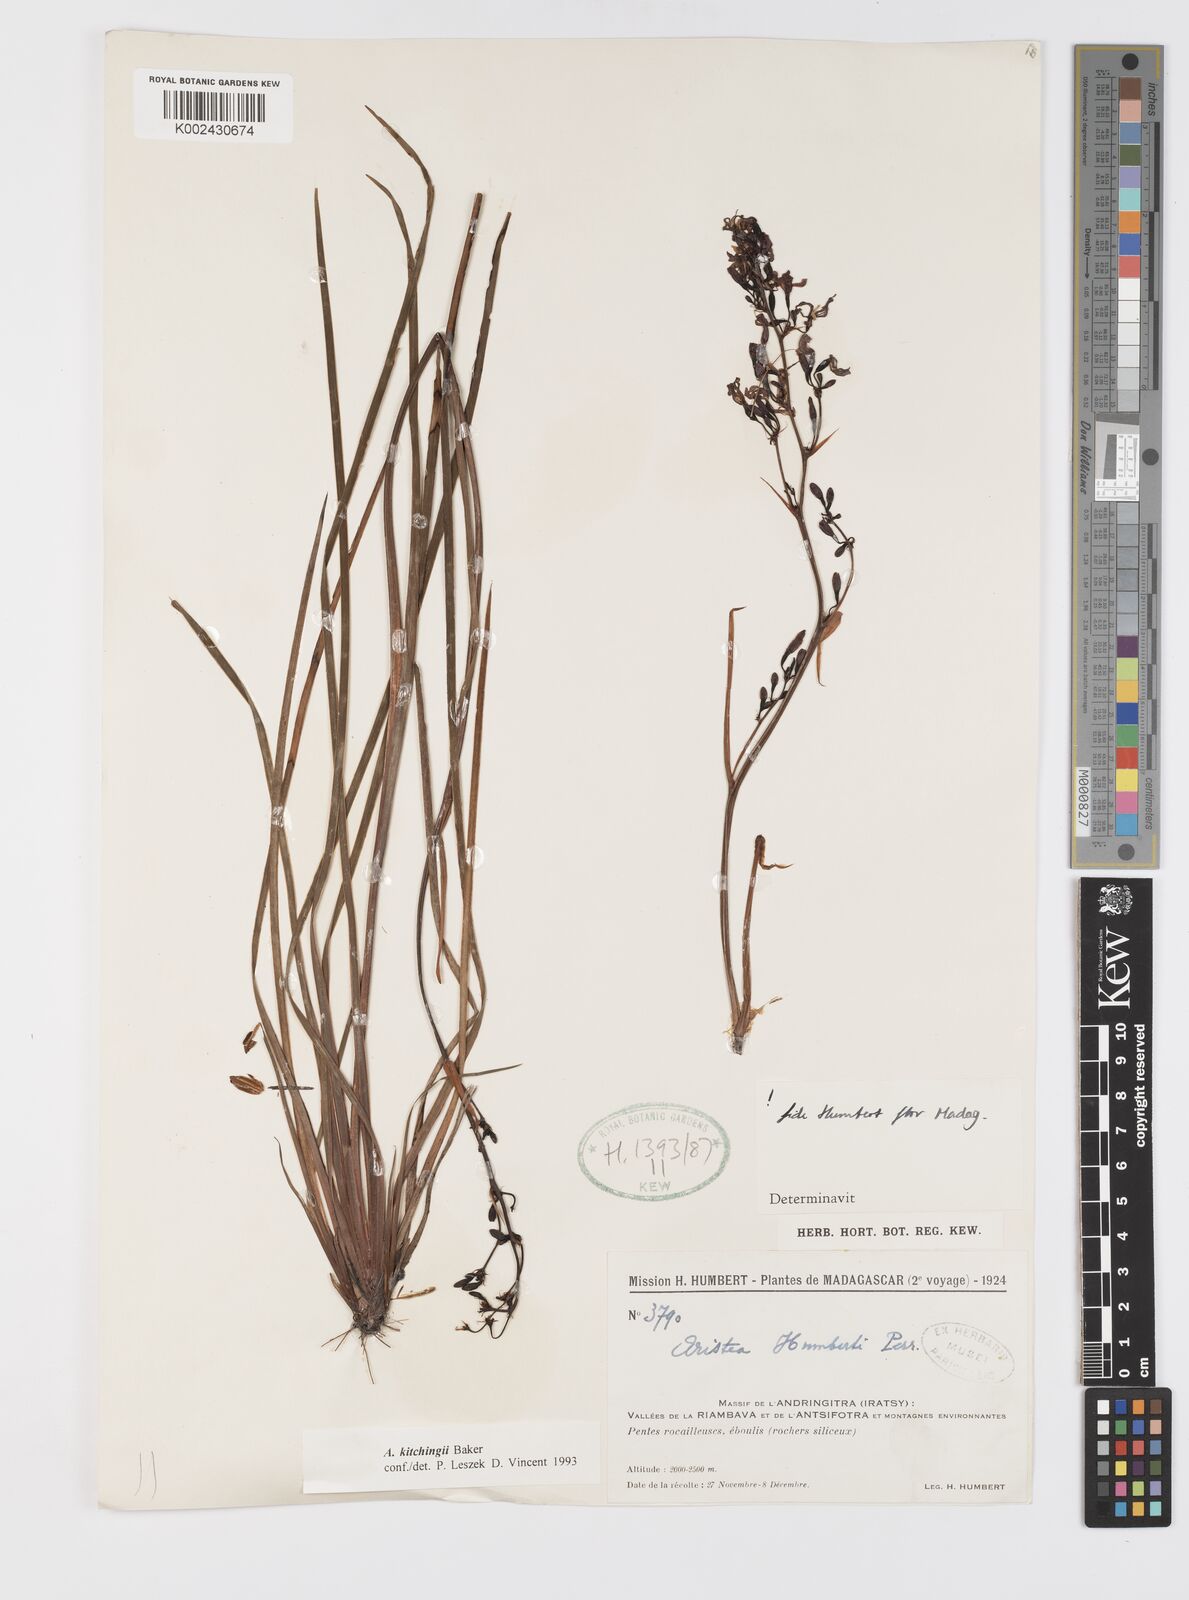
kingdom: Plantae
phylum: Tracheophyta
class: Liliopsida
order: Asparagales
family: Iridaceae
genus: Aristea
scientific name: Aristea kitchingii
